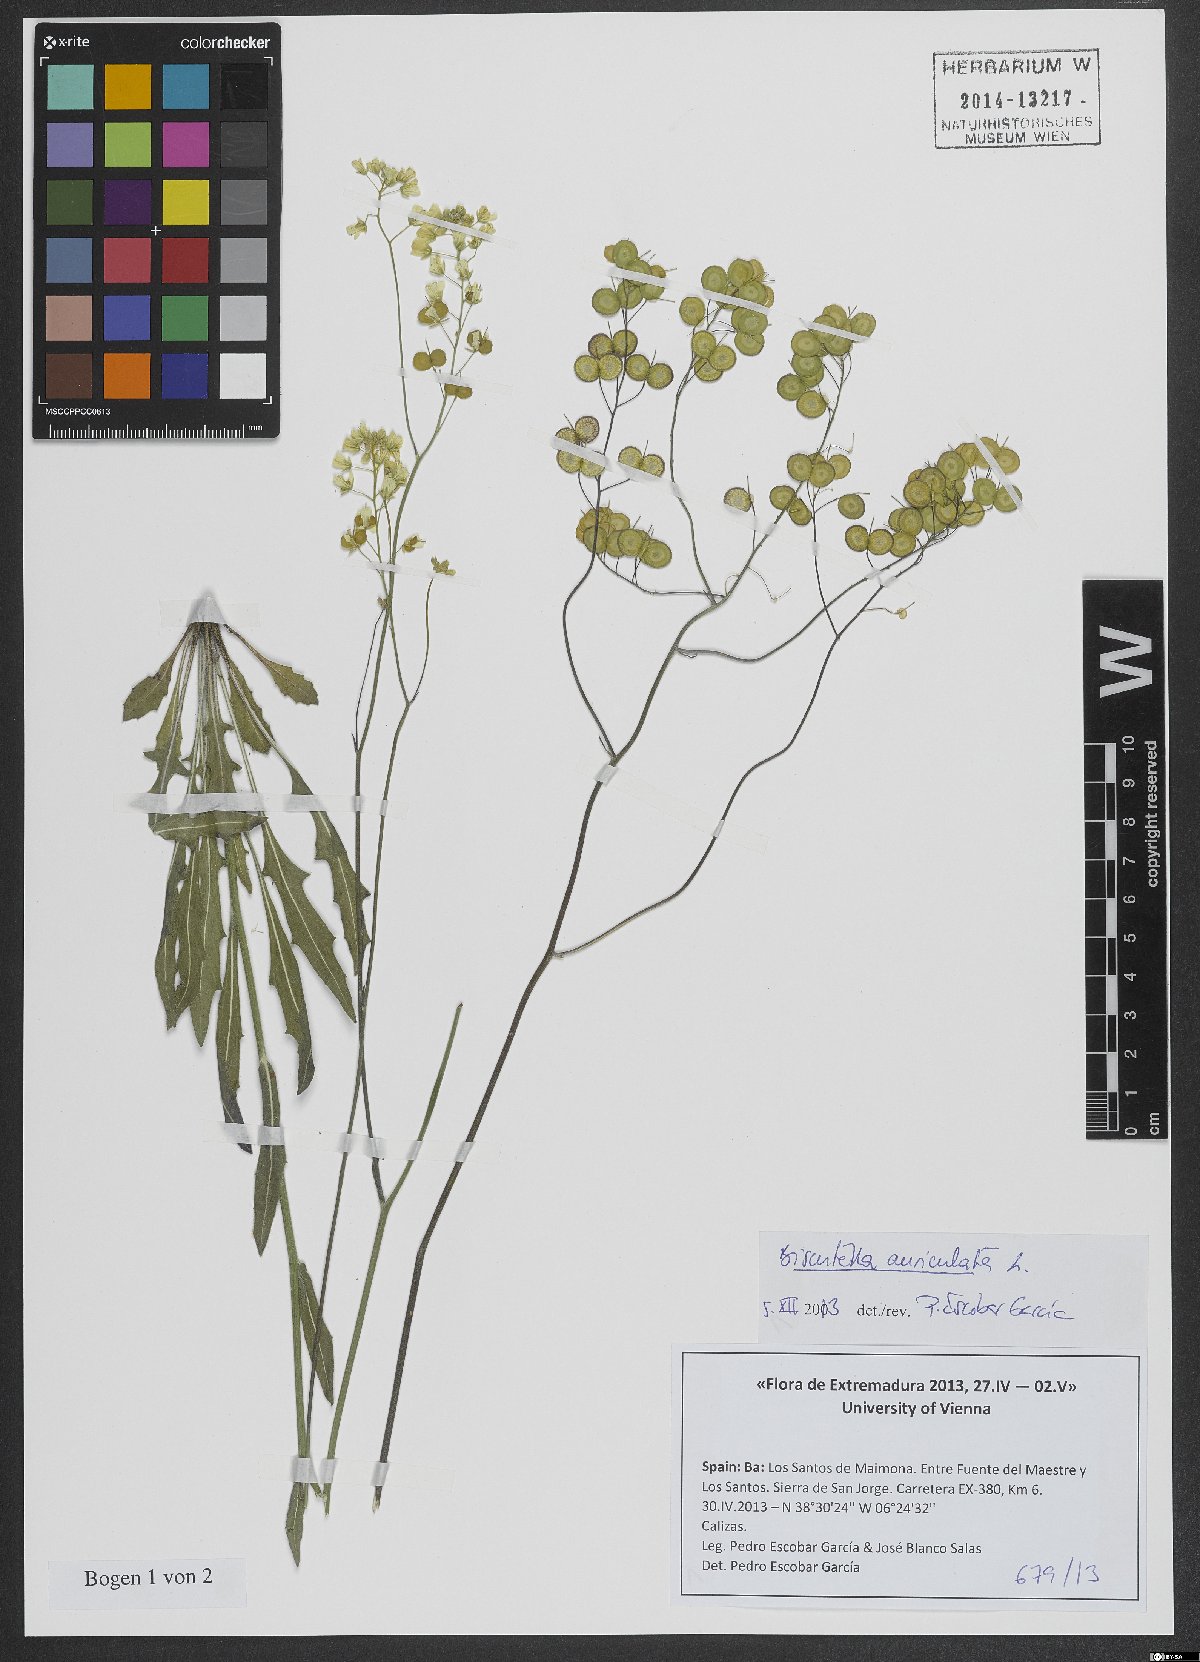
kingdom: Plantae
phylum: Tracheophyta
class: Magnoliopsida
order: Brassicales
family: Brassicaceae
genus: Biscutella
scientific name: Biscutella auriculata
